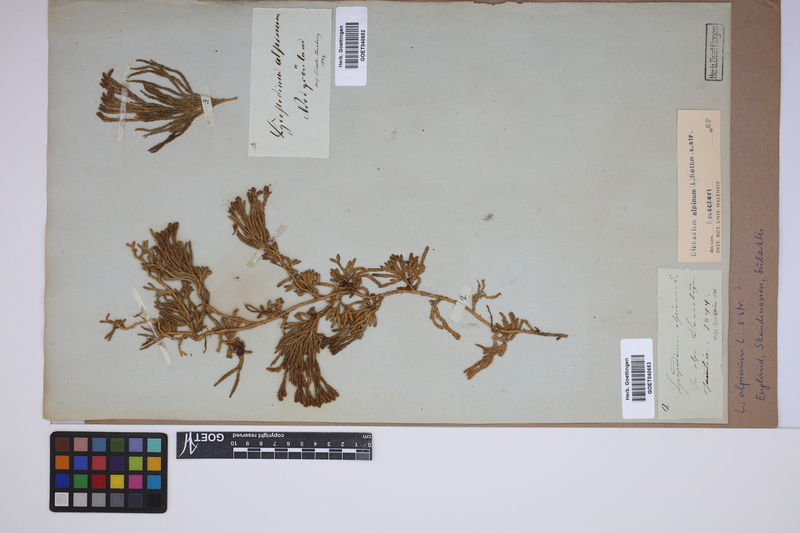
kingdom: Plantae
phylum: Tracheophyta
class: Lycopodiopsida
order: Lycopodiales
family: Lycopodiaceae
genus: Diphasiastrum
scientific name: Diphasiastrum alpinum
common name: Alpine clubmoss
